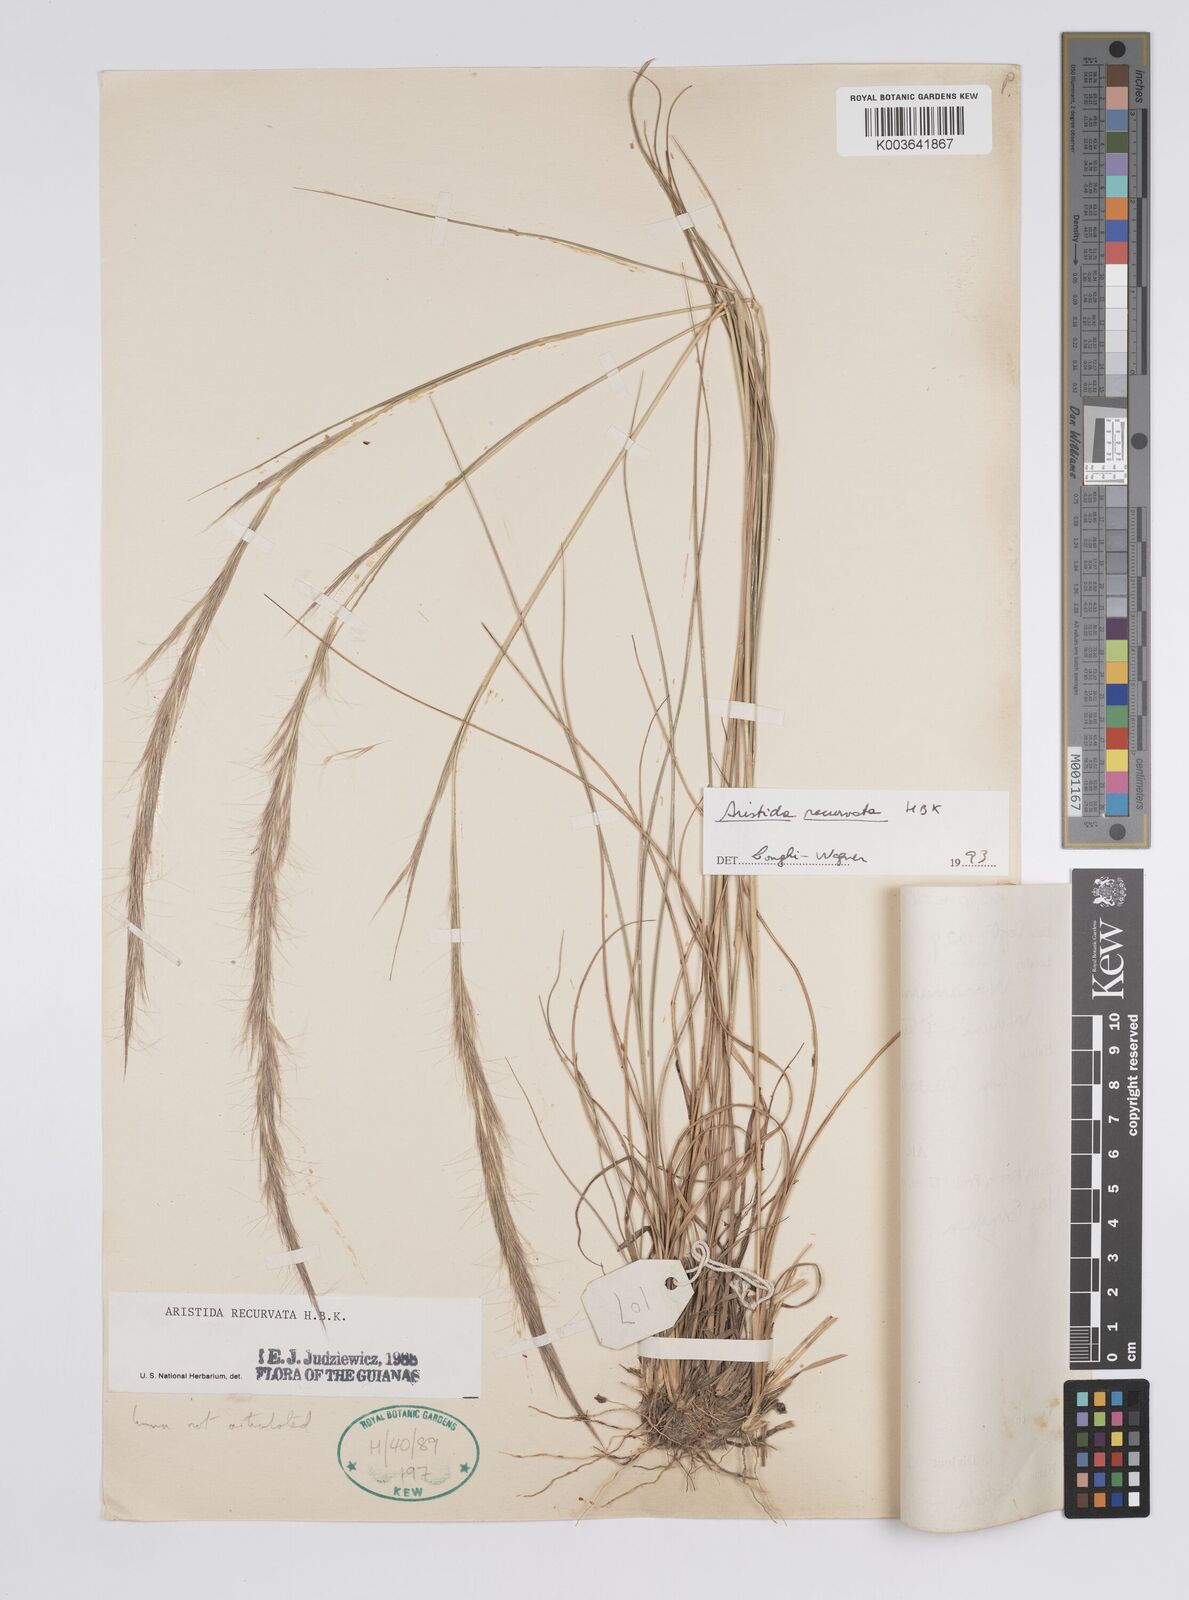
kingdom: Plantae
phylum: Tracheophyta
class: Liliopsida
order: Poales
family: Poaceae
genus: Aristida
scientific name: Aristida recurvata
